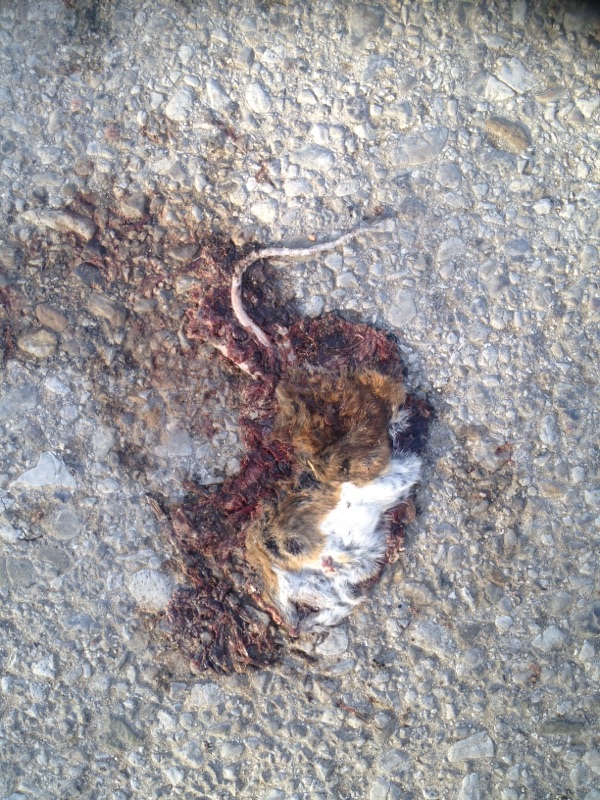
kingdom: Animalia
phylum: Chordata
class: Mammalia
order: Rodentia
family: Muridae
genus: Apodemus
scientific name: Apodemus
